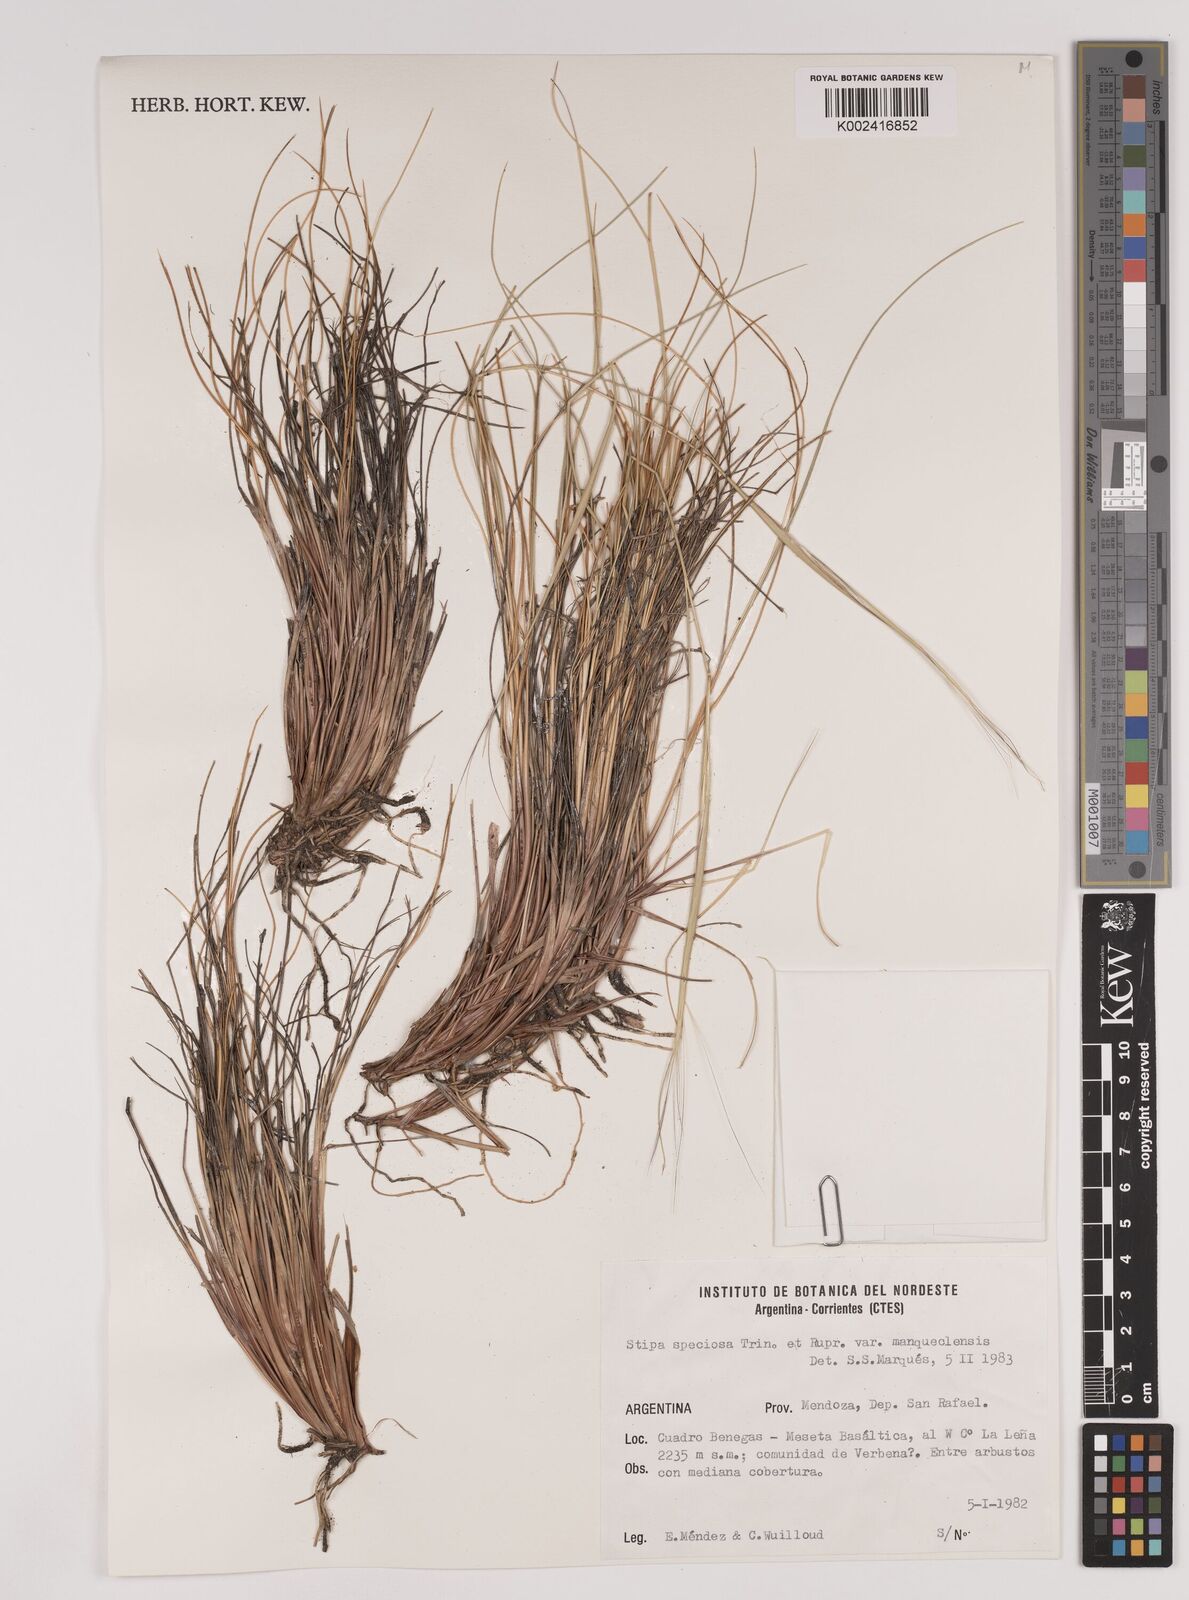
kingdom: Plantae
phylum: Tracheophyta
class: Liliopsida
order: Poales
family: Poaceae
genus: Pappostipa
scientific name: Pappostipa speciosa
